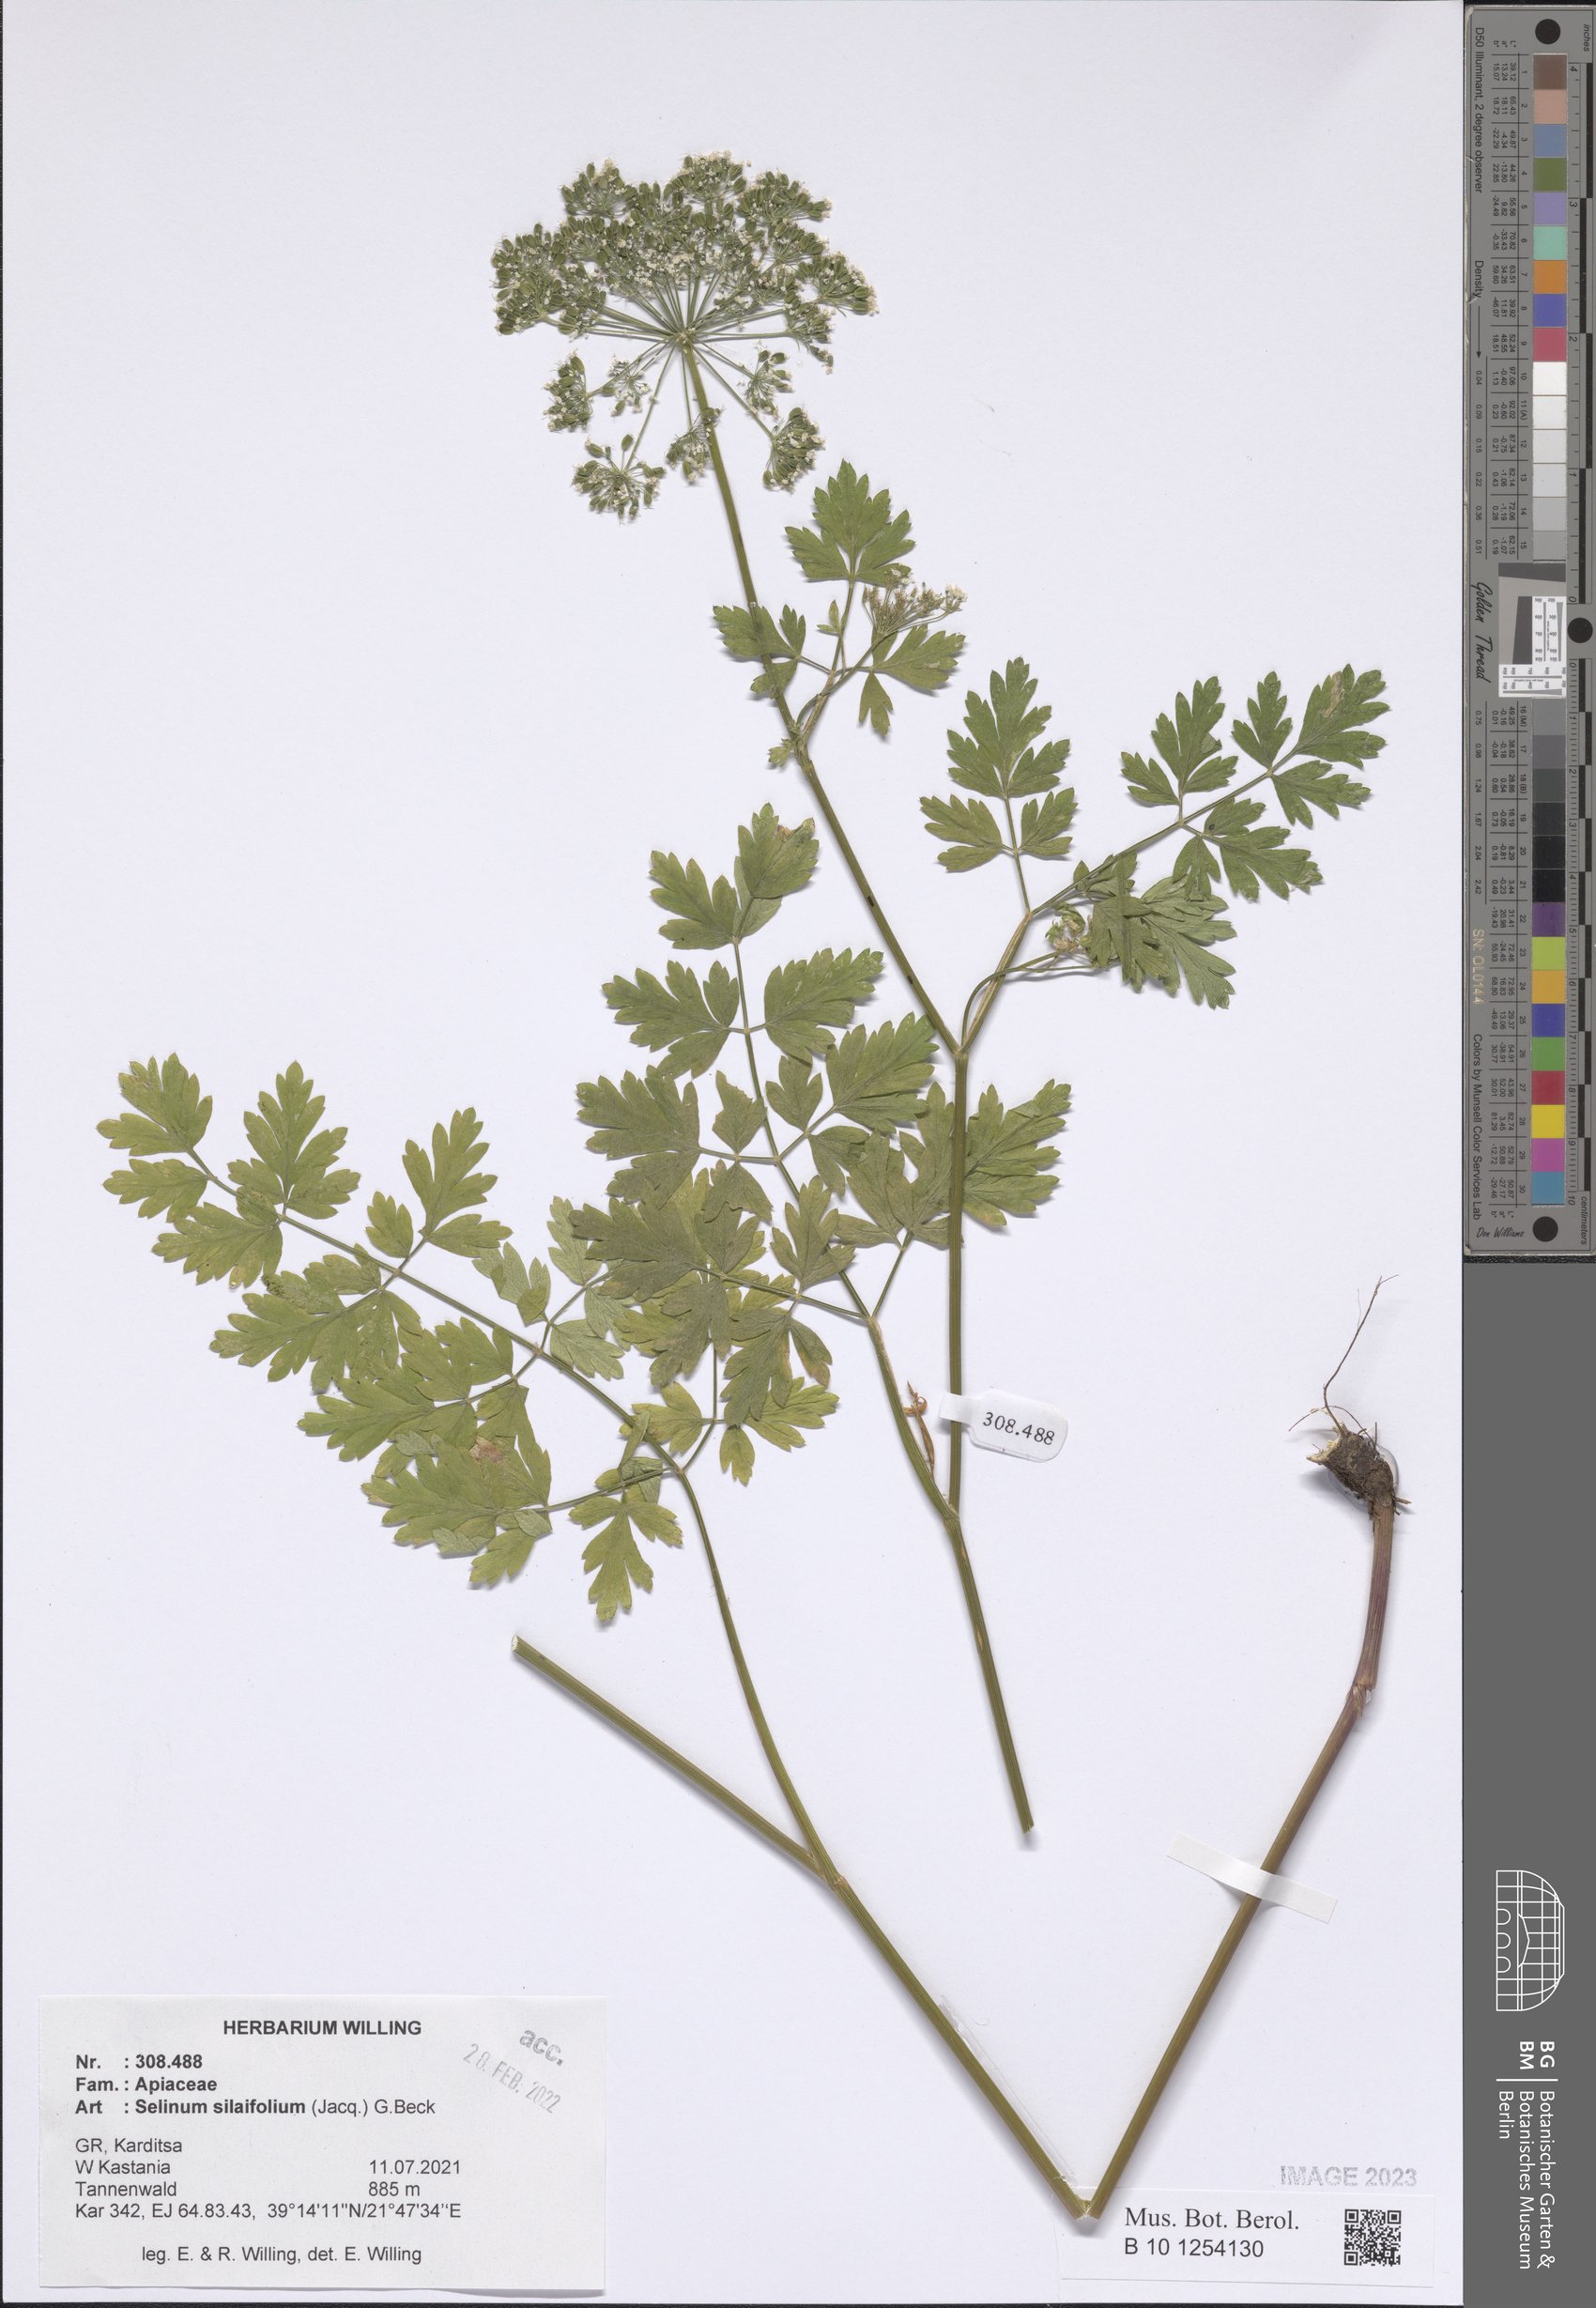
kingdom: Plantae
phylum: Tracheophyta
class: Magnoliopsida
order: Apiales
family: Apiaceae
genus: Katapsuxis
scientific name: Katapsuxis silaifolia
